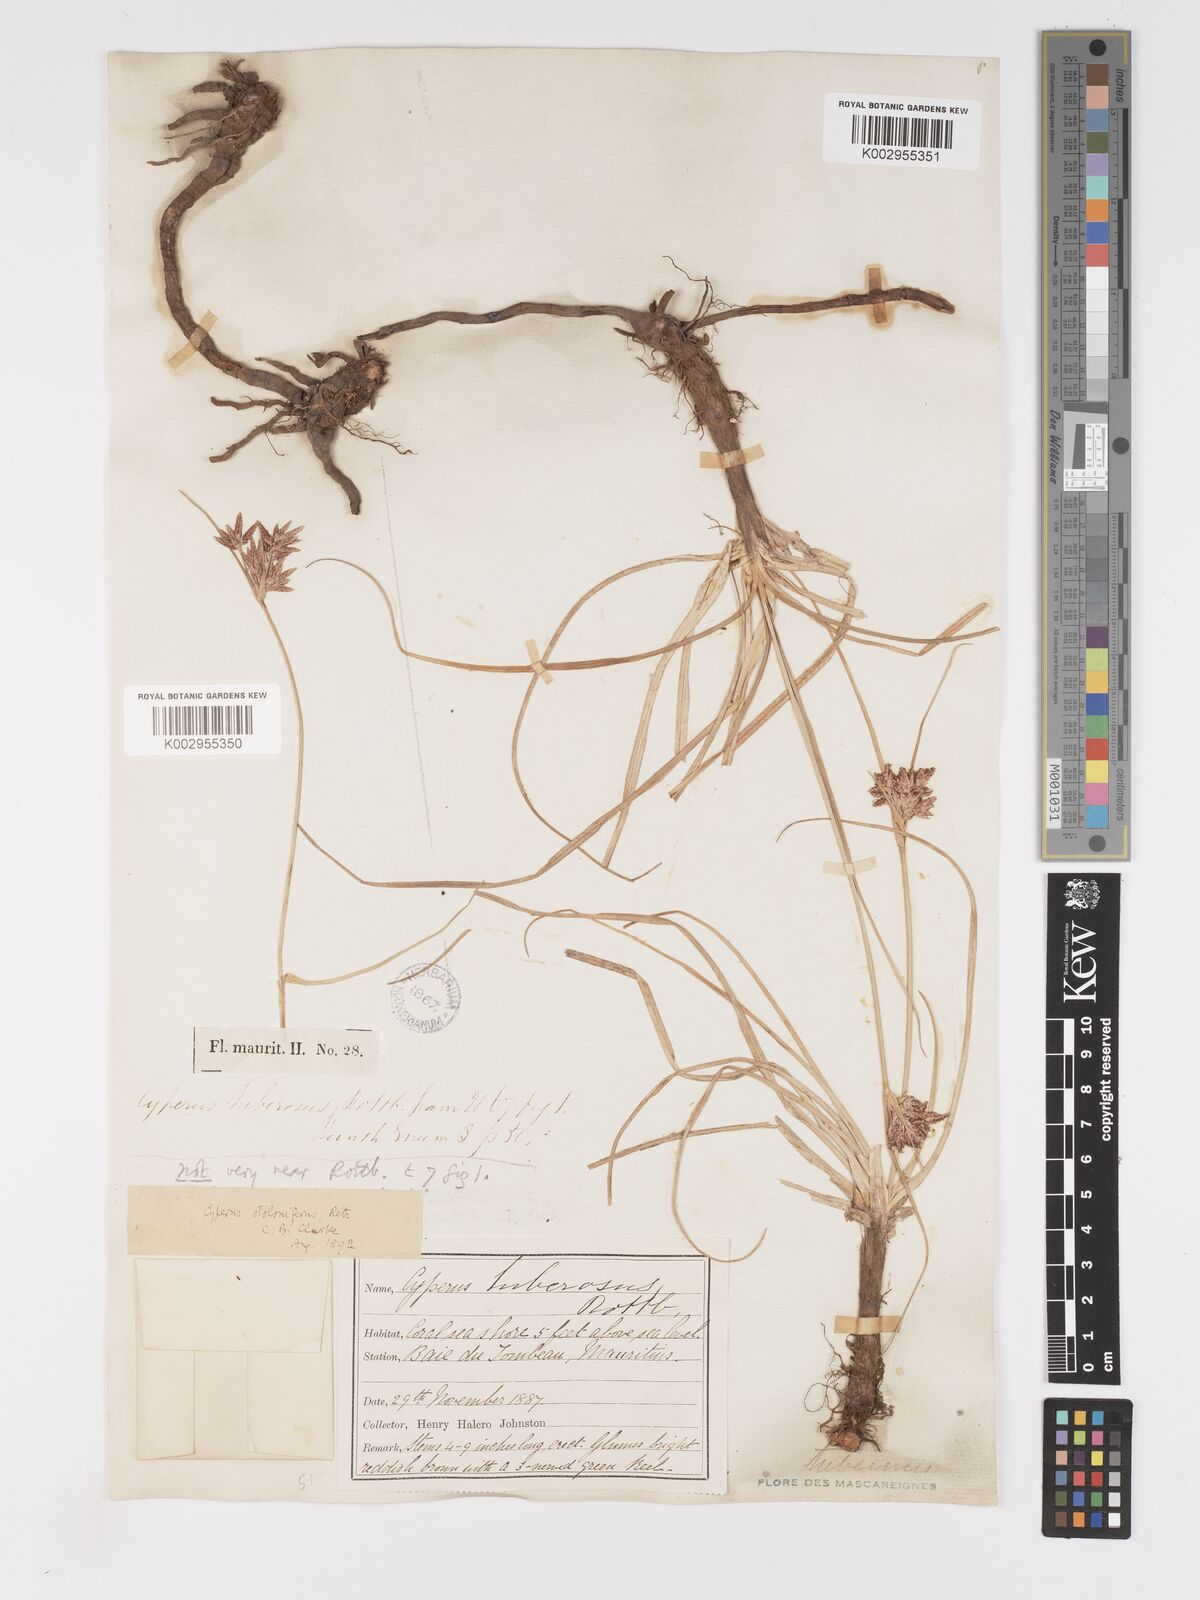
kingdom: Plantae
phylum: Tracheophyta
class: Liliopsida
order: Poales
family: Cyperaceae
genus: Cyperus
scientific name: Cyperus bulbosus
